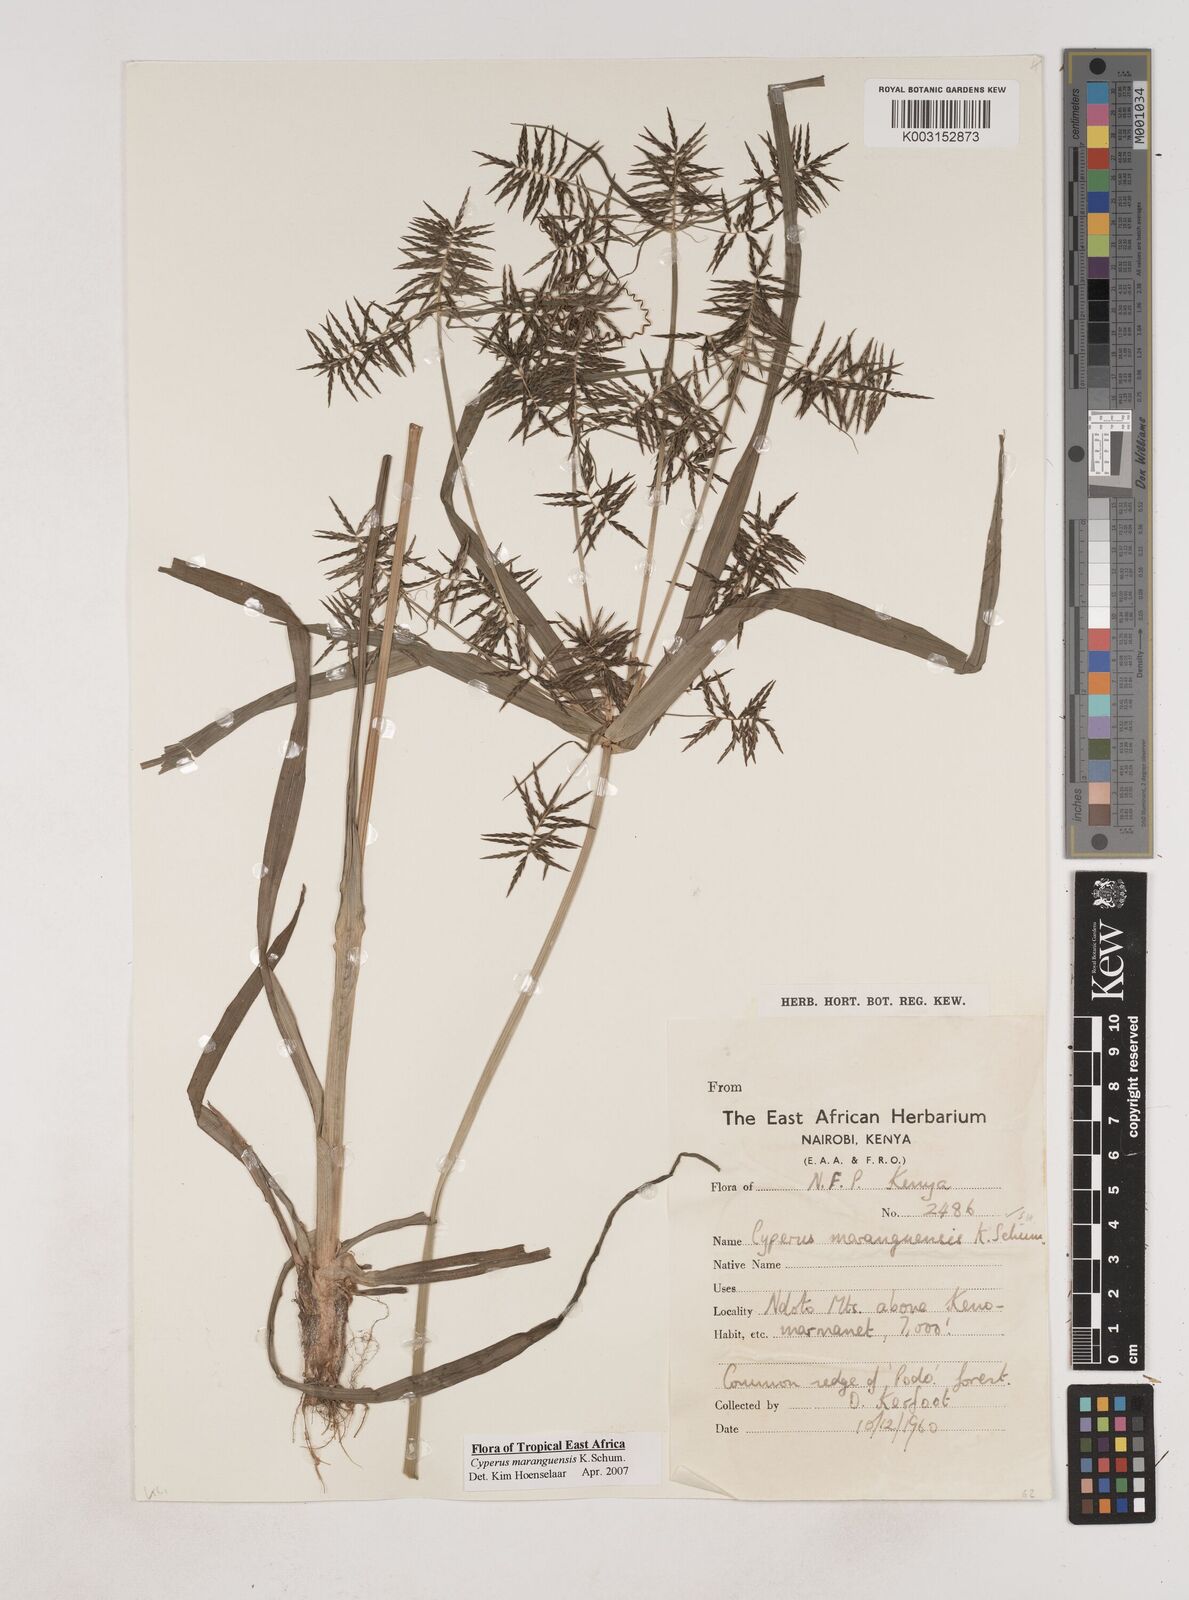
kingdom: Plantae
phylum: Tracheophyta
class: Liliopsida
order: Poales
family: Cyperaceae
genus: Cyperus
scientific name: Cyperus maranguensis
